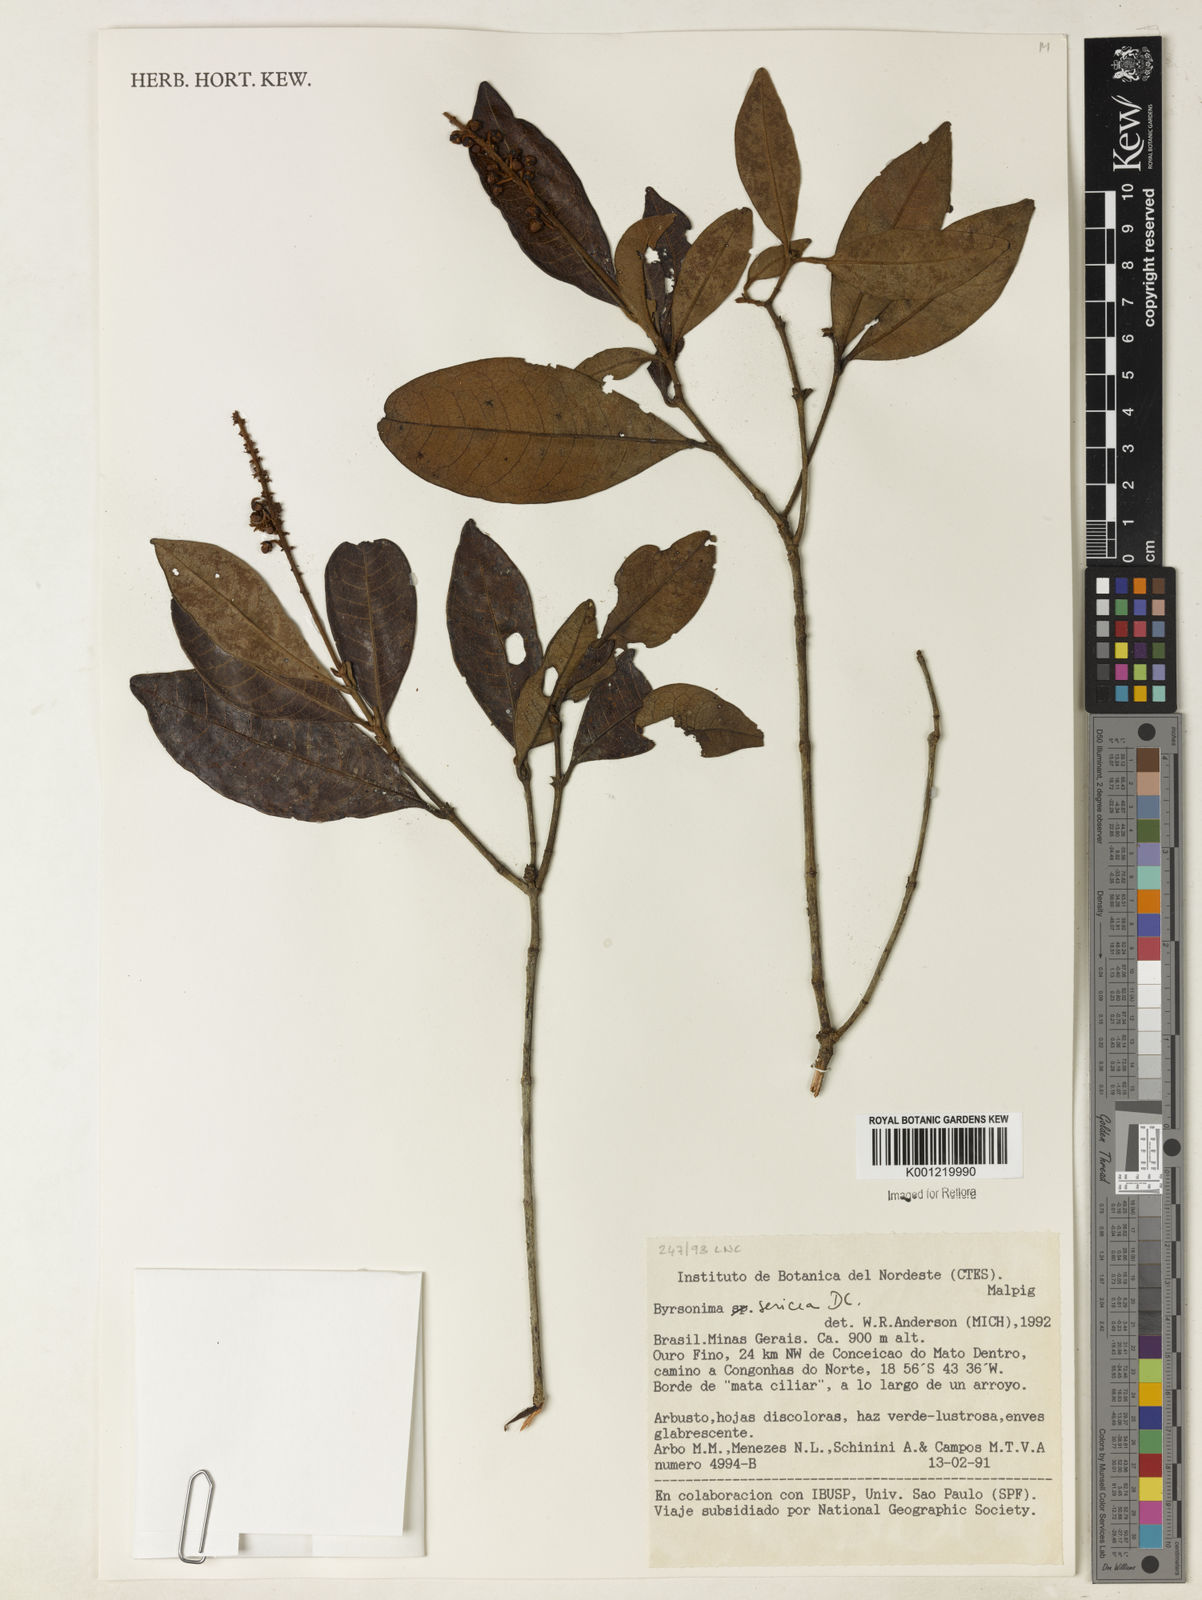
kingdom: Plantae
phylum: Tracheophyta
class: Magnoliopsida
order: Malpighiales
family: Malpighiaceae
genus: Byrsonima
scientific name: Byrsonima sericea
